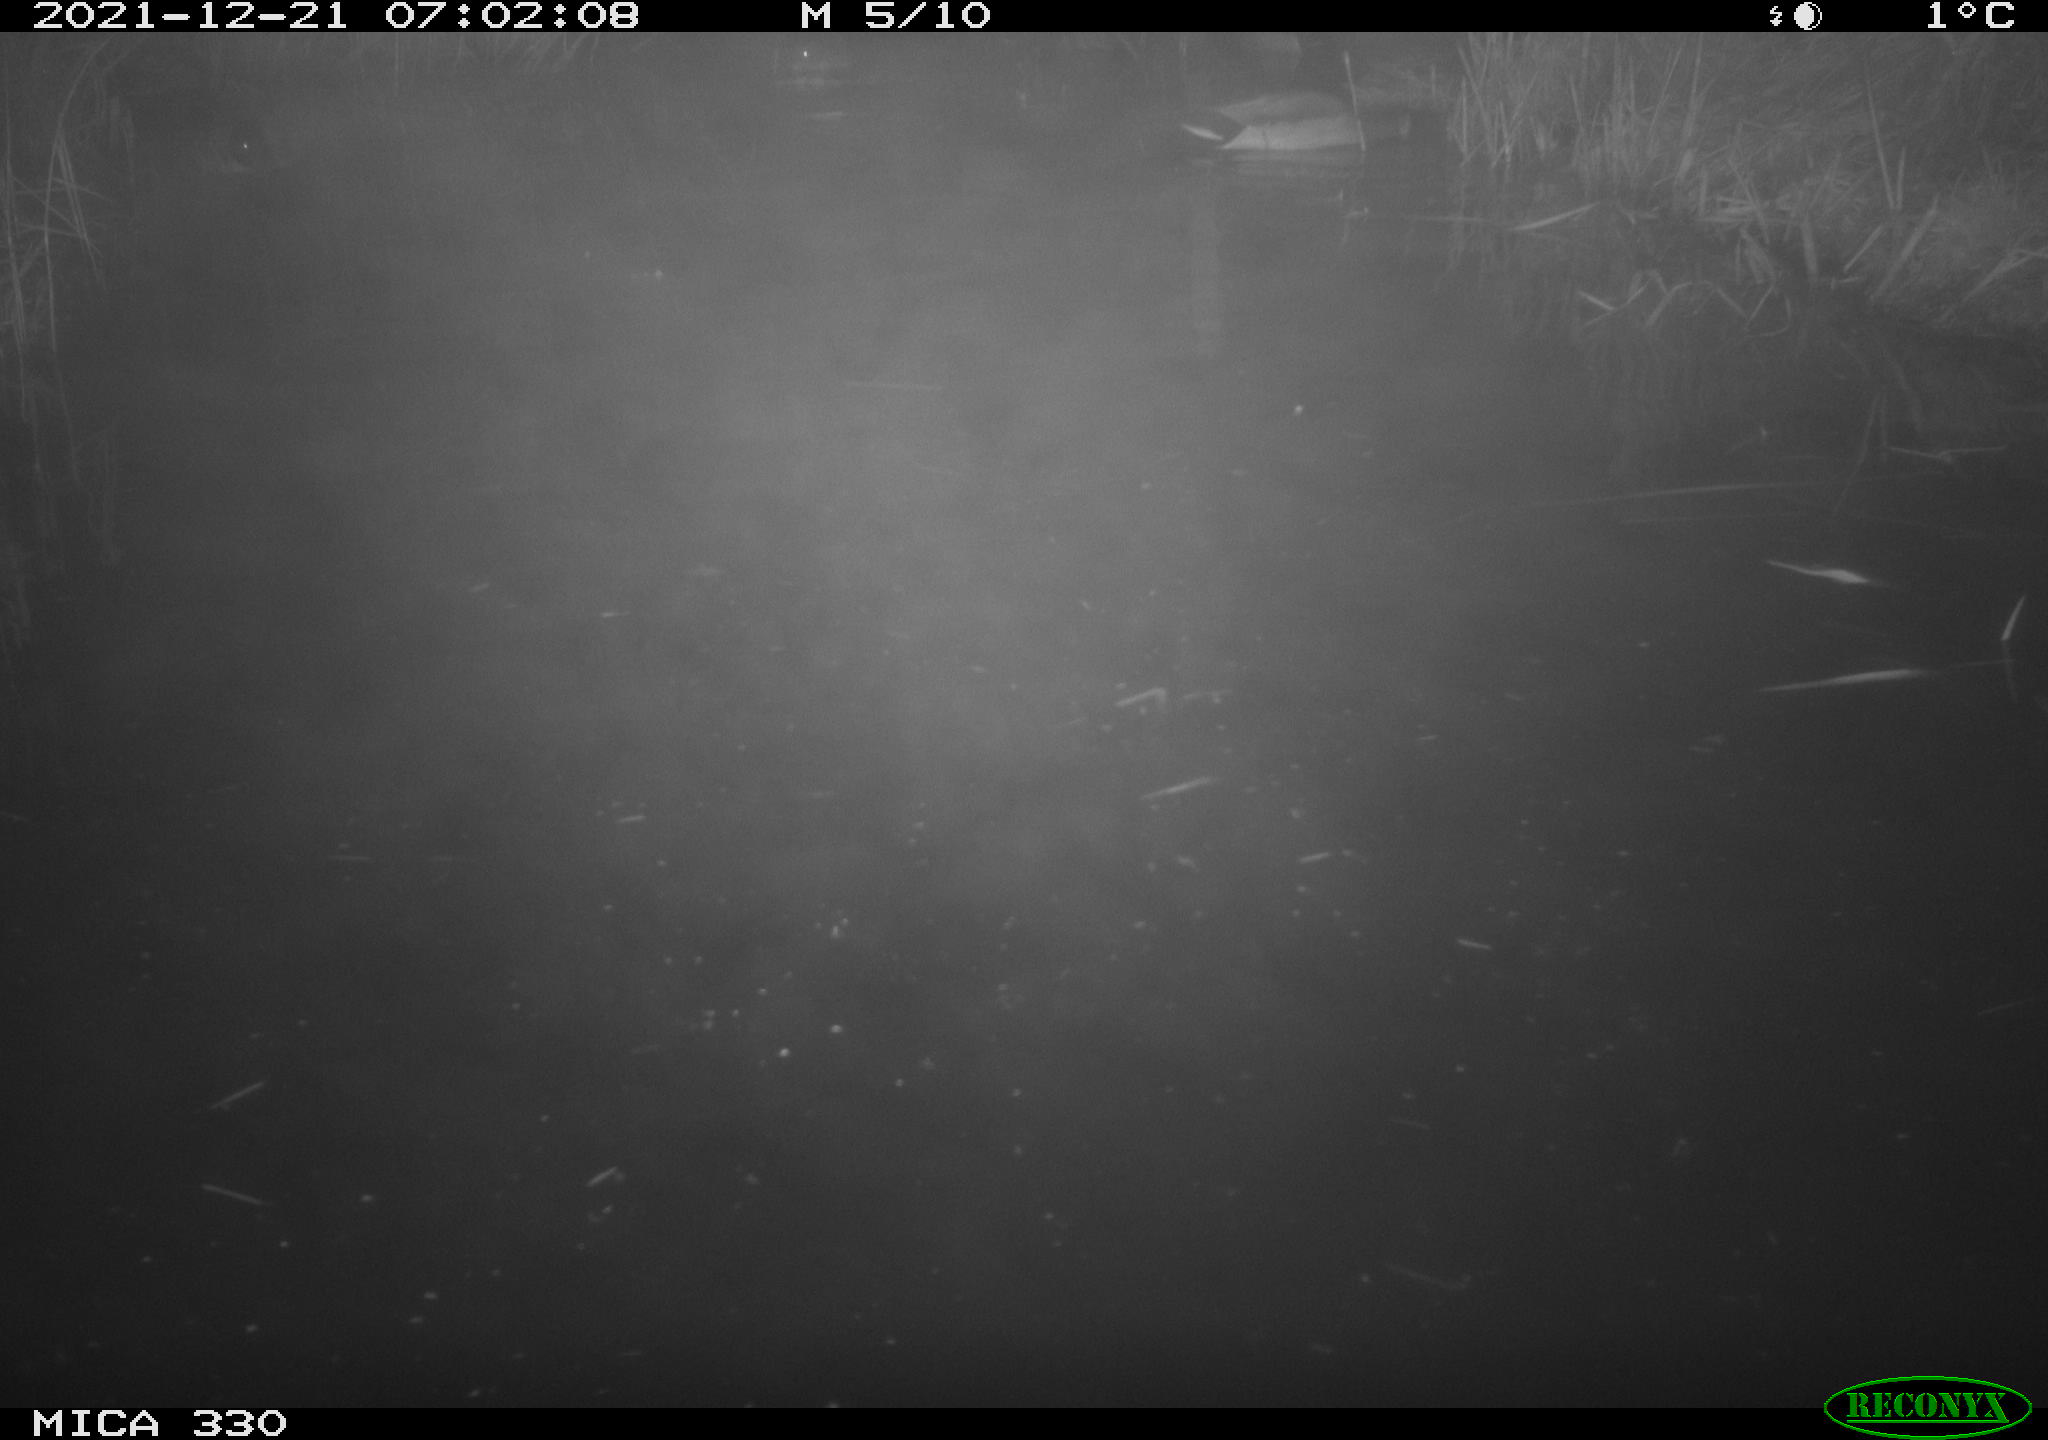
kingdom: Animalia
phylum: Chordata
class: Aves
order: Anseriformes
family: Anatidae
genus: Anas
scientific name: Anas platyrhynchos
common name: Mallard
